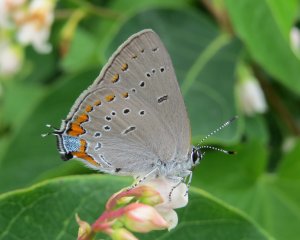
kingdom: Animalia
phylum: Arthropoda
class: Insecta
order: Lepidoptera
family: Lycaenidae
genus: Strymon
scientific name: Strymon acadica
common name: Acadian Hairstreak
